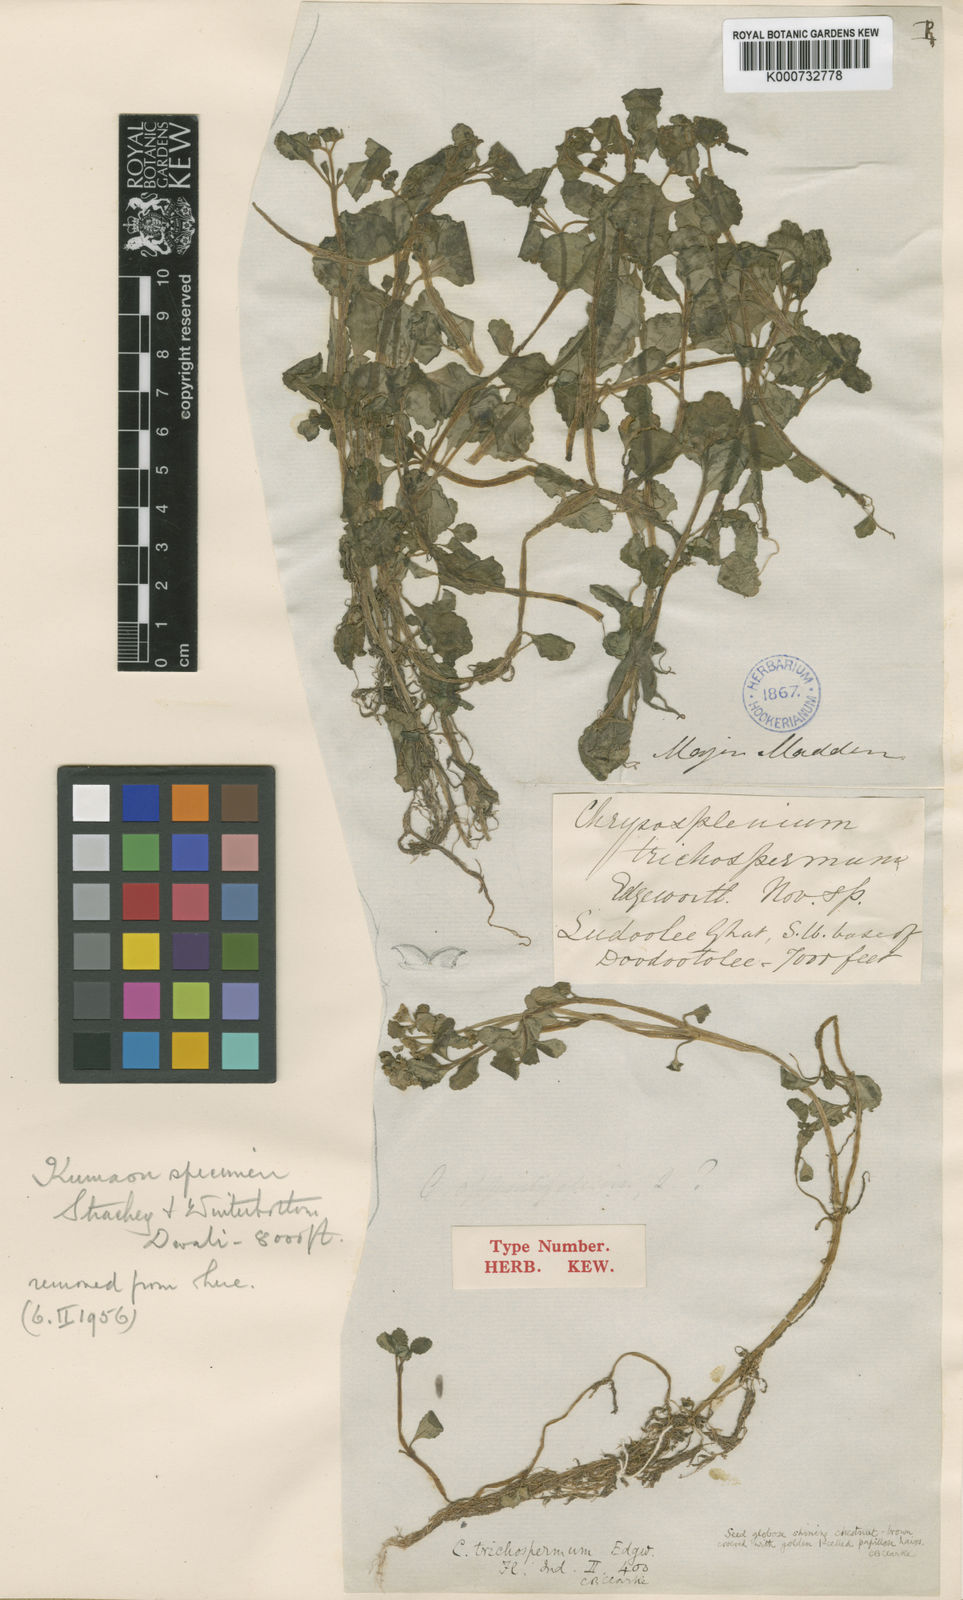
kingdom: Plantae
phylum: Tracheophyta
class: Magnoliopsida
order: Saxifragales
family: Saxifragaceae
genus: Chrysosplenium
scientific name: Chrysosplenium trichospermum
